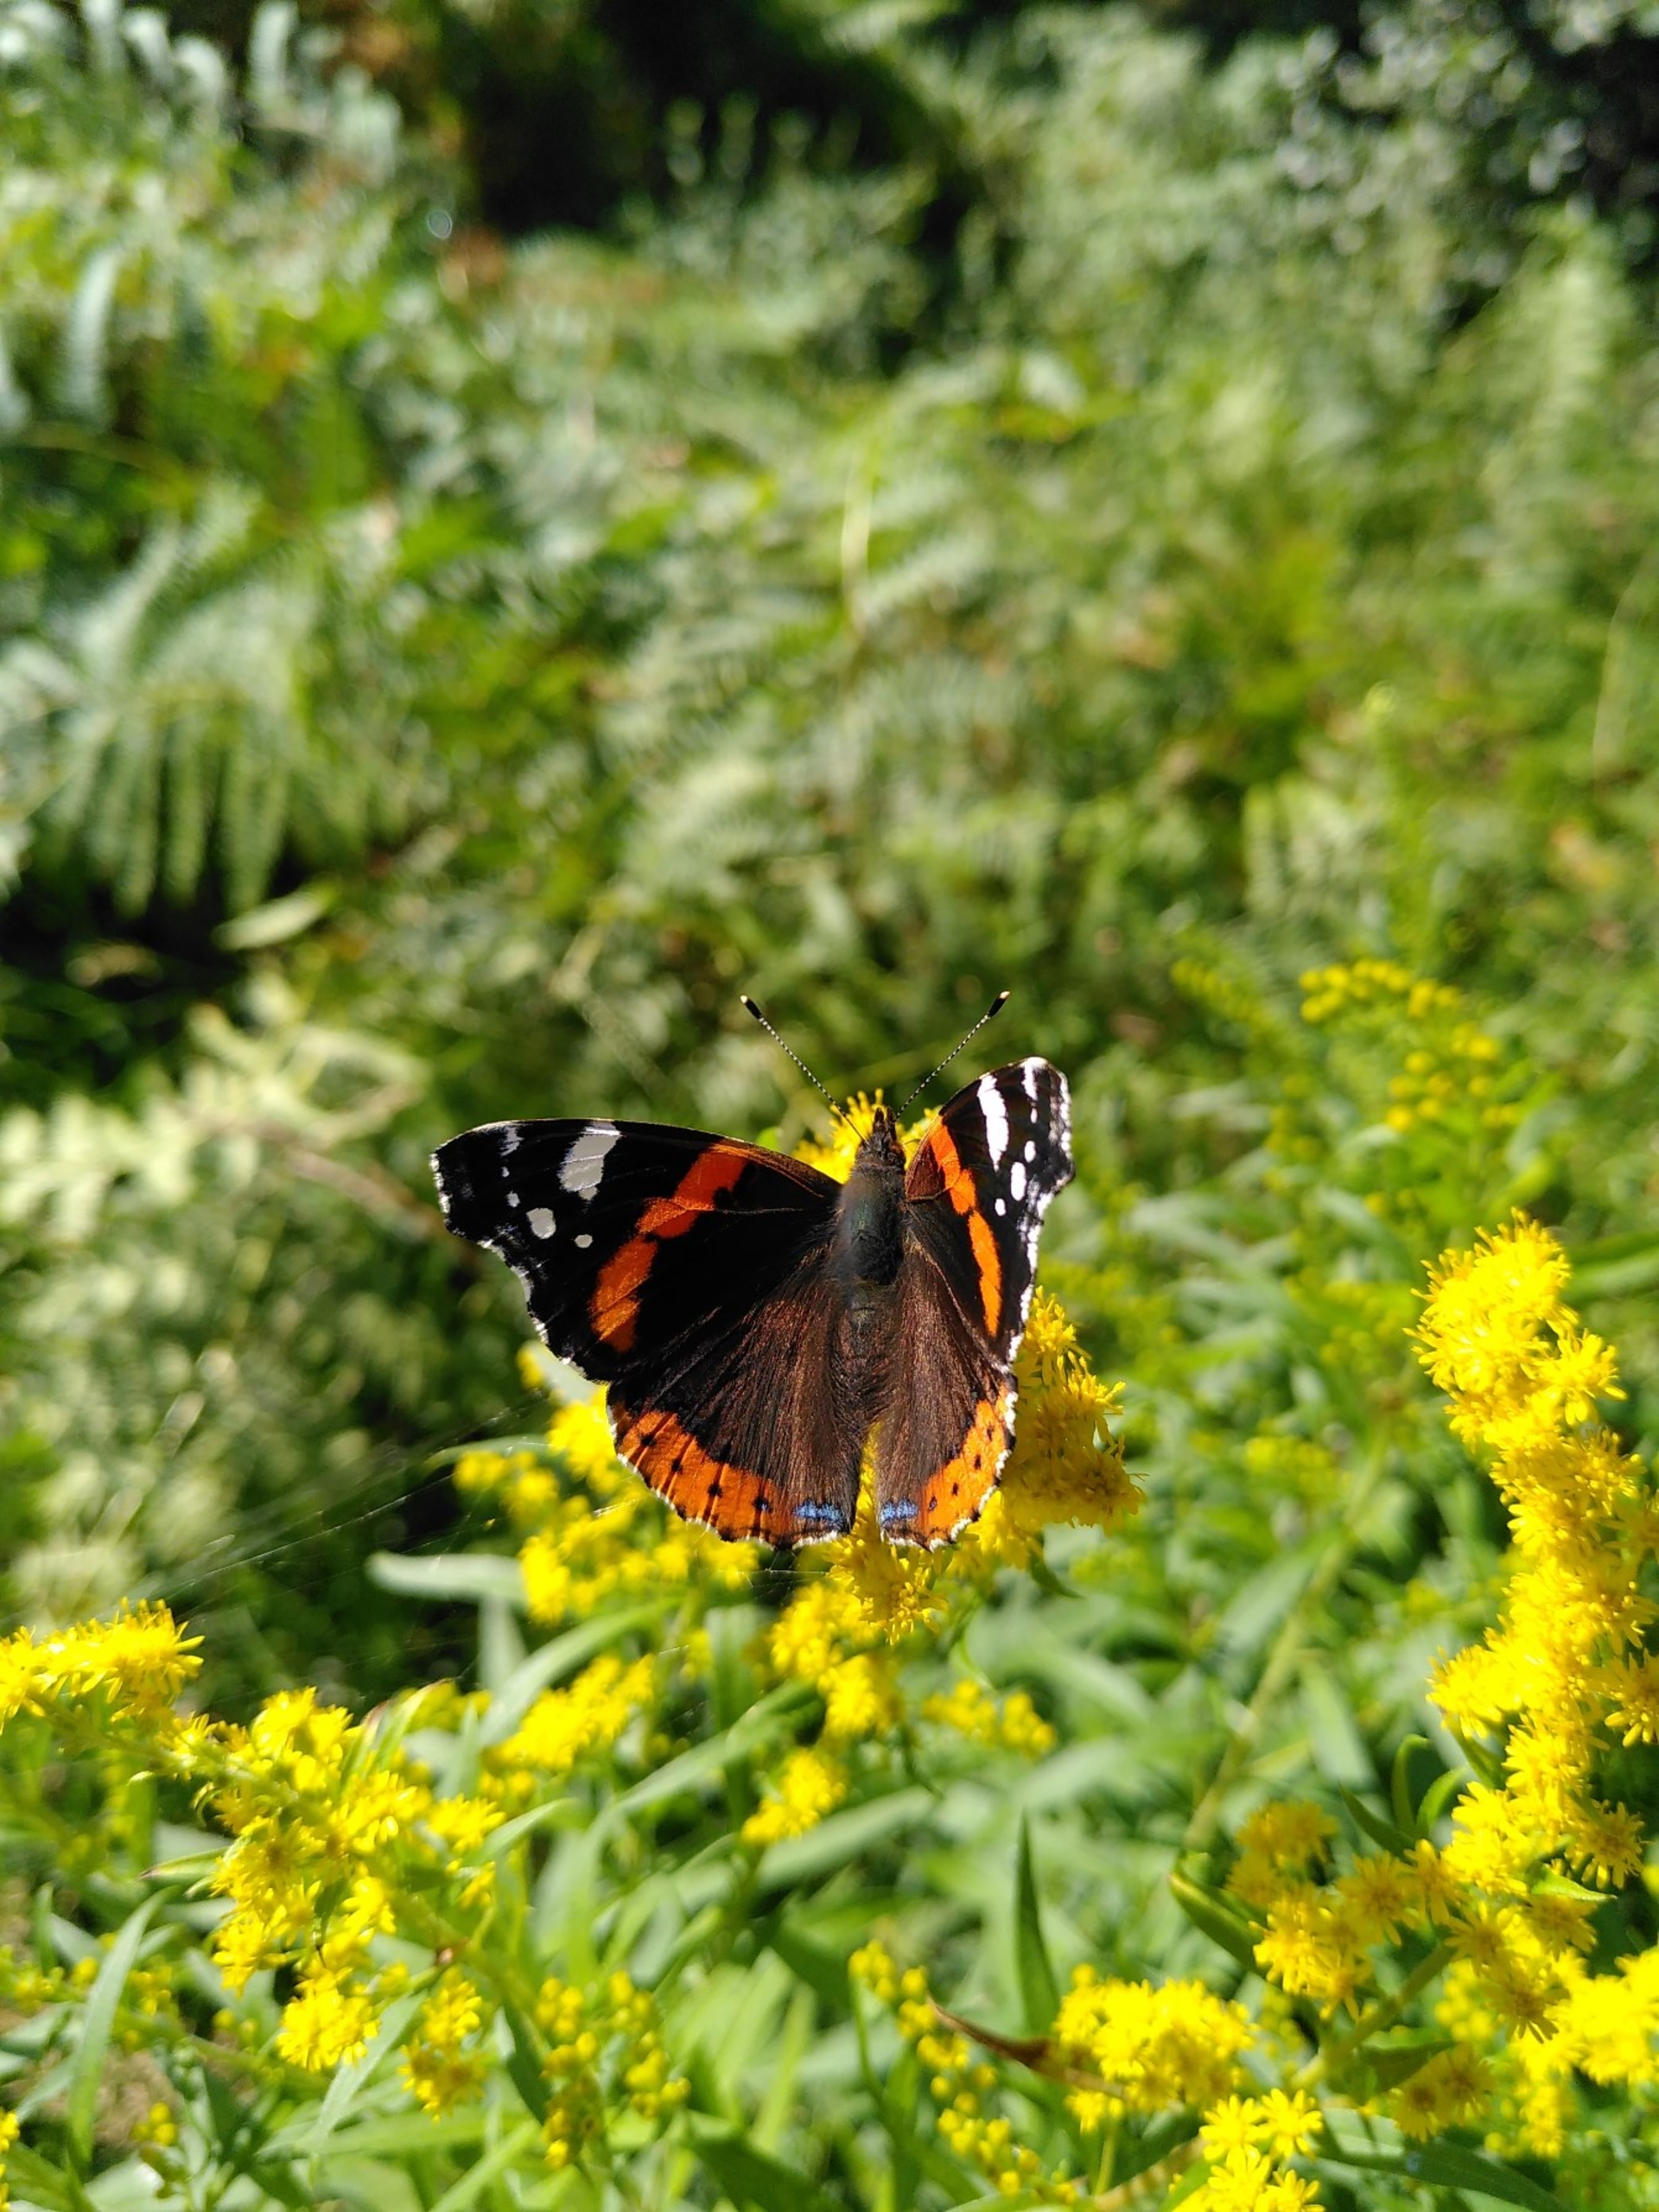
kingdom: Animalia
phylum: Arthropoda
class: Insecta
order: Lepidoptera
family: Nymphalidae
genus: Vanessa
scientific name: Vanessa atalanta
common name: Admiral
